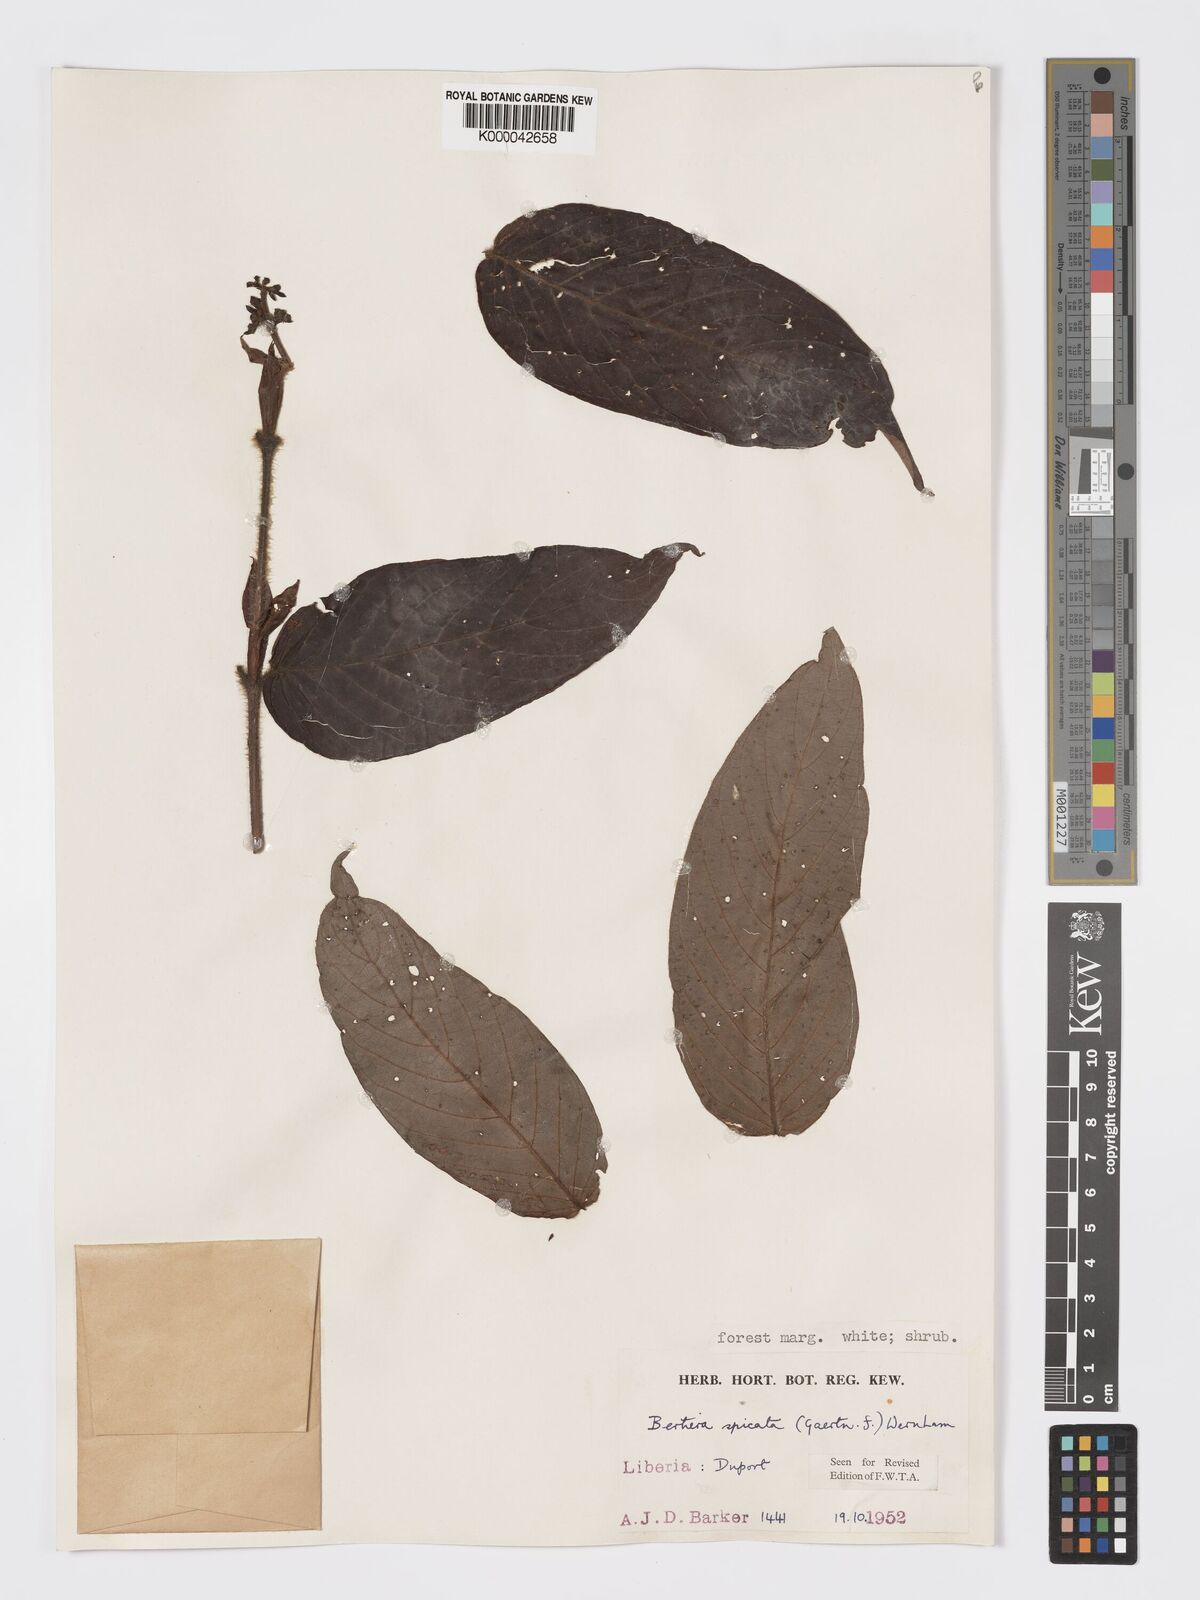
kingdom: Plantae
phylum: Tracheophyta
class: Magnoliopsida
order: Gentianales
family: Rubiaceae
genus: Bertiera
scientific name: Bertiera
